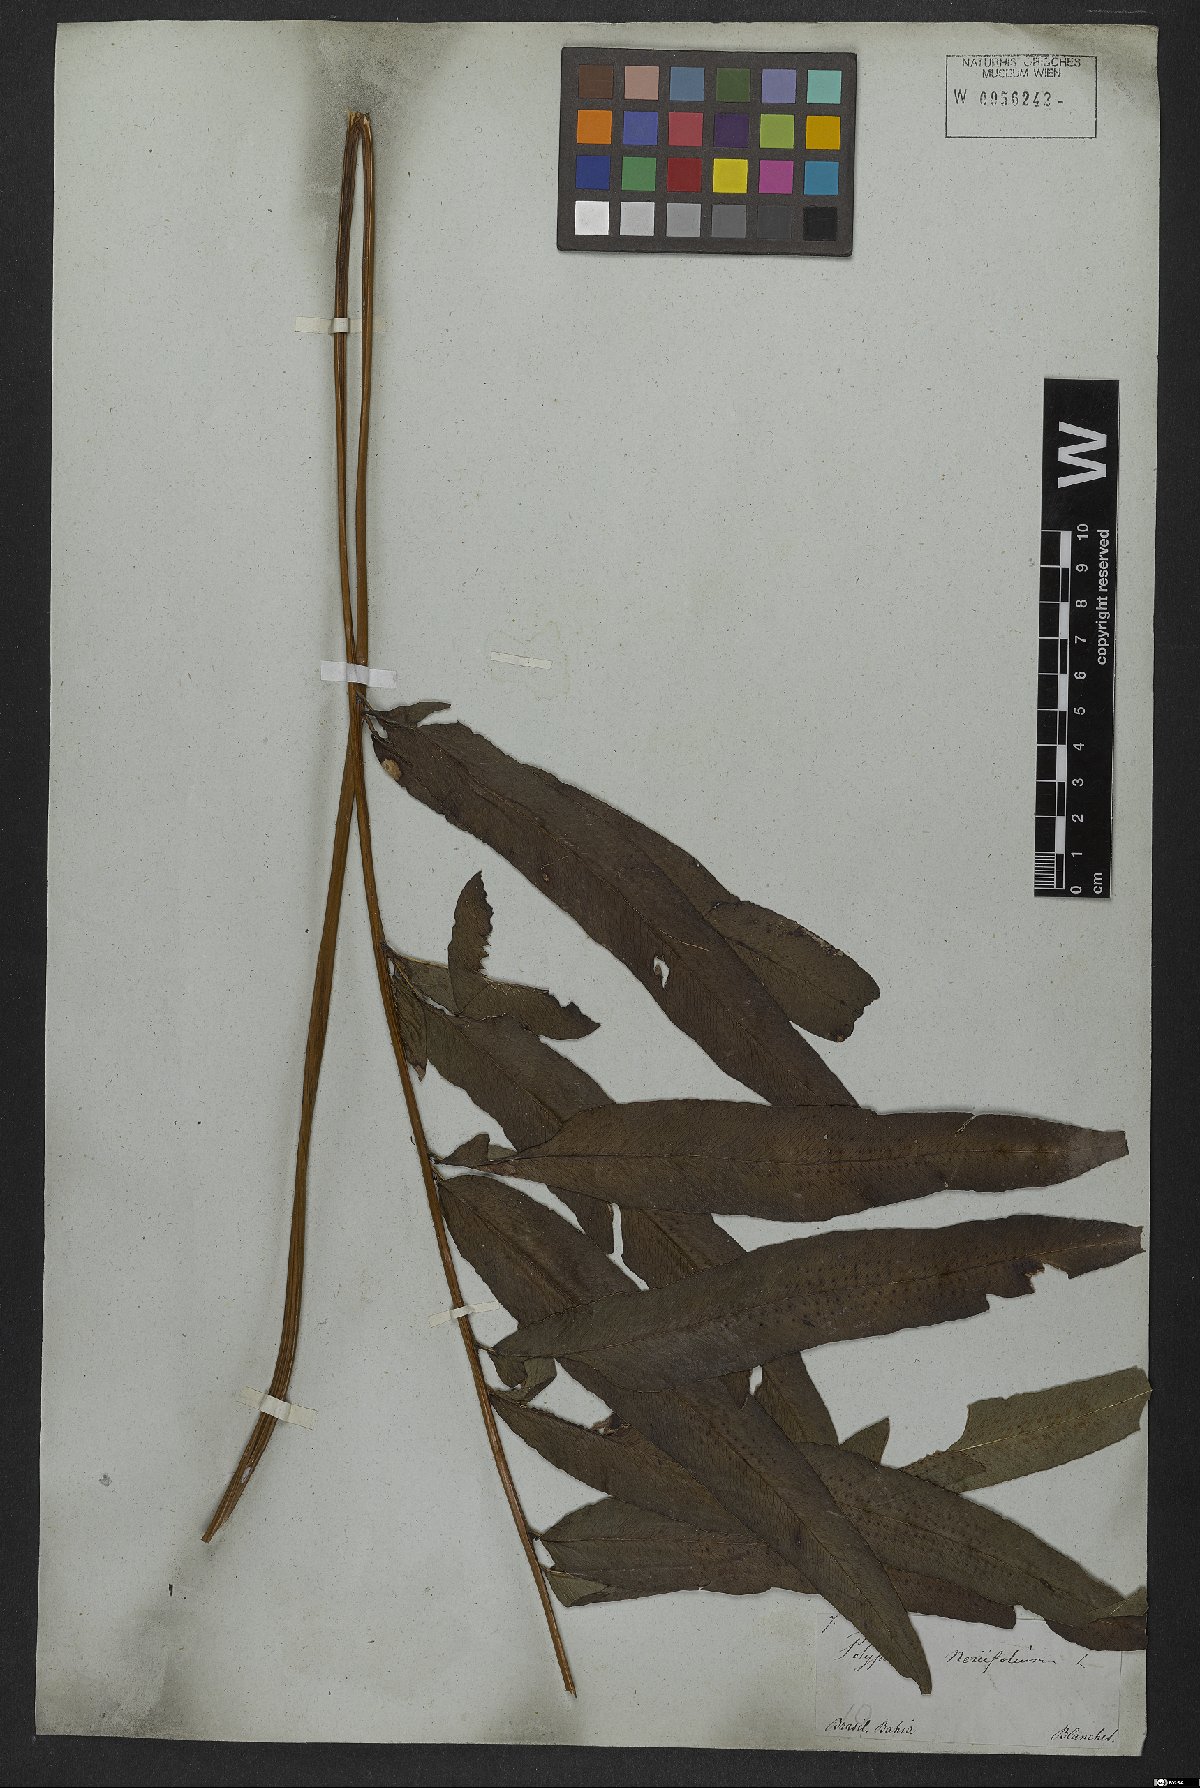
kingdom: Plantae
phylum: Tracheophyta
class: Polypodiopsida
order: Polypodiales
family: Polypodiaceae
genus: Serpocaulon
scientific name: Serpocaulon triseriale
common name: Angle-vein fern
